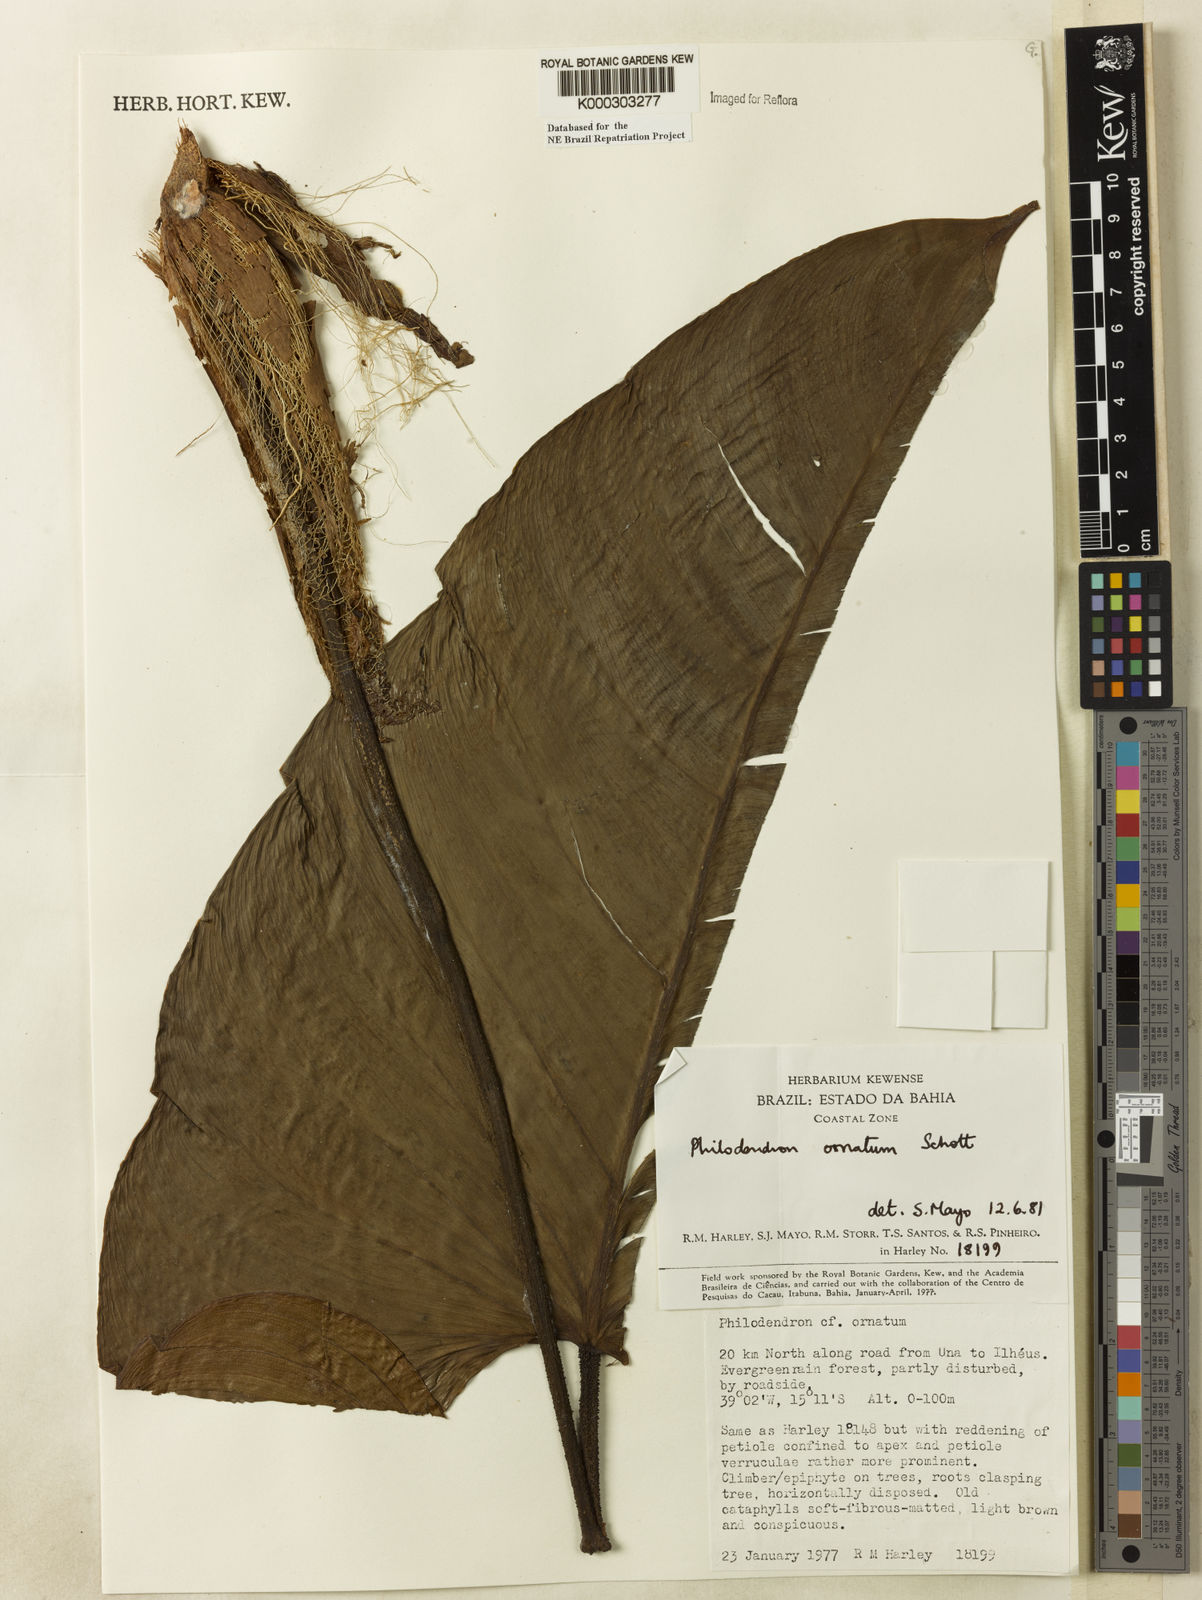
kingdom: Plantae
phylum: Tracheophyta
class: Liliopsida
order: Alismatales
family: Araceae
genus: Philodendron
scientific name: Philodendron ornatum
